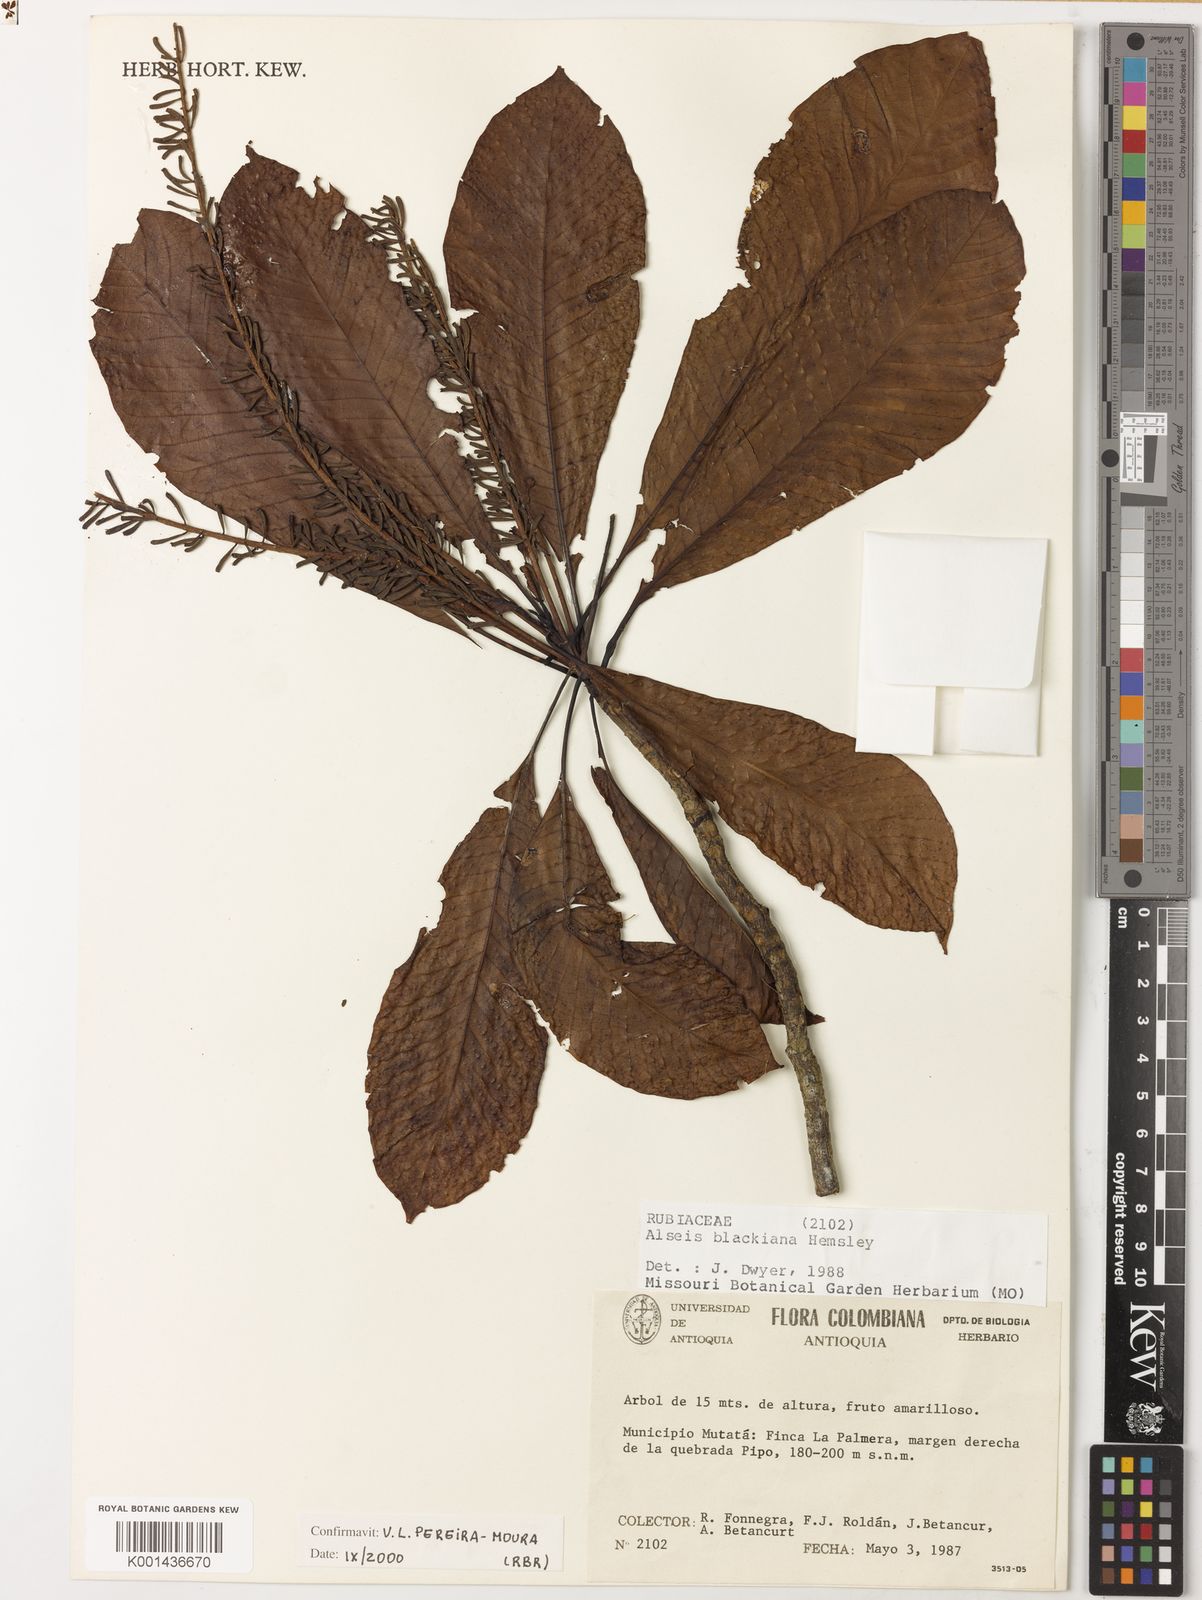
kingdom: Plantae
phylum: Tracheophyta
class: Magnoliopsida
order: Gentianales
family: Rubiaceae
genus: Alseis
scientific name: Alseis blackiana
